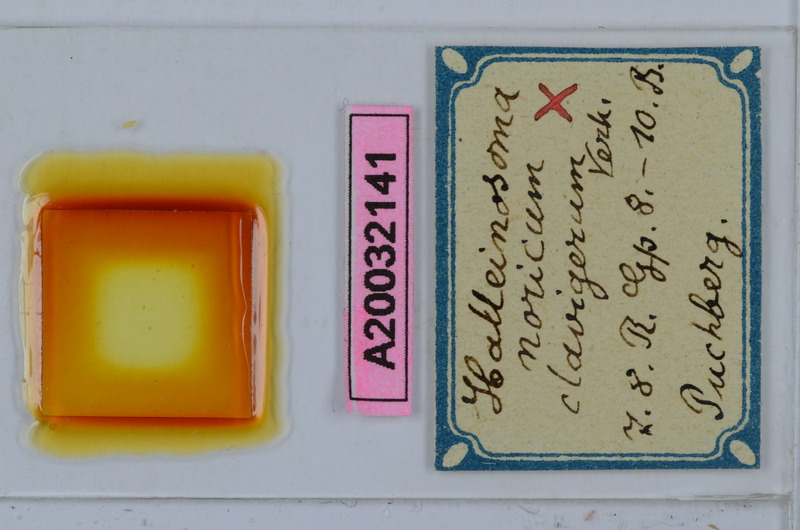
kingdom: Animalia
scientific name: Animalia
